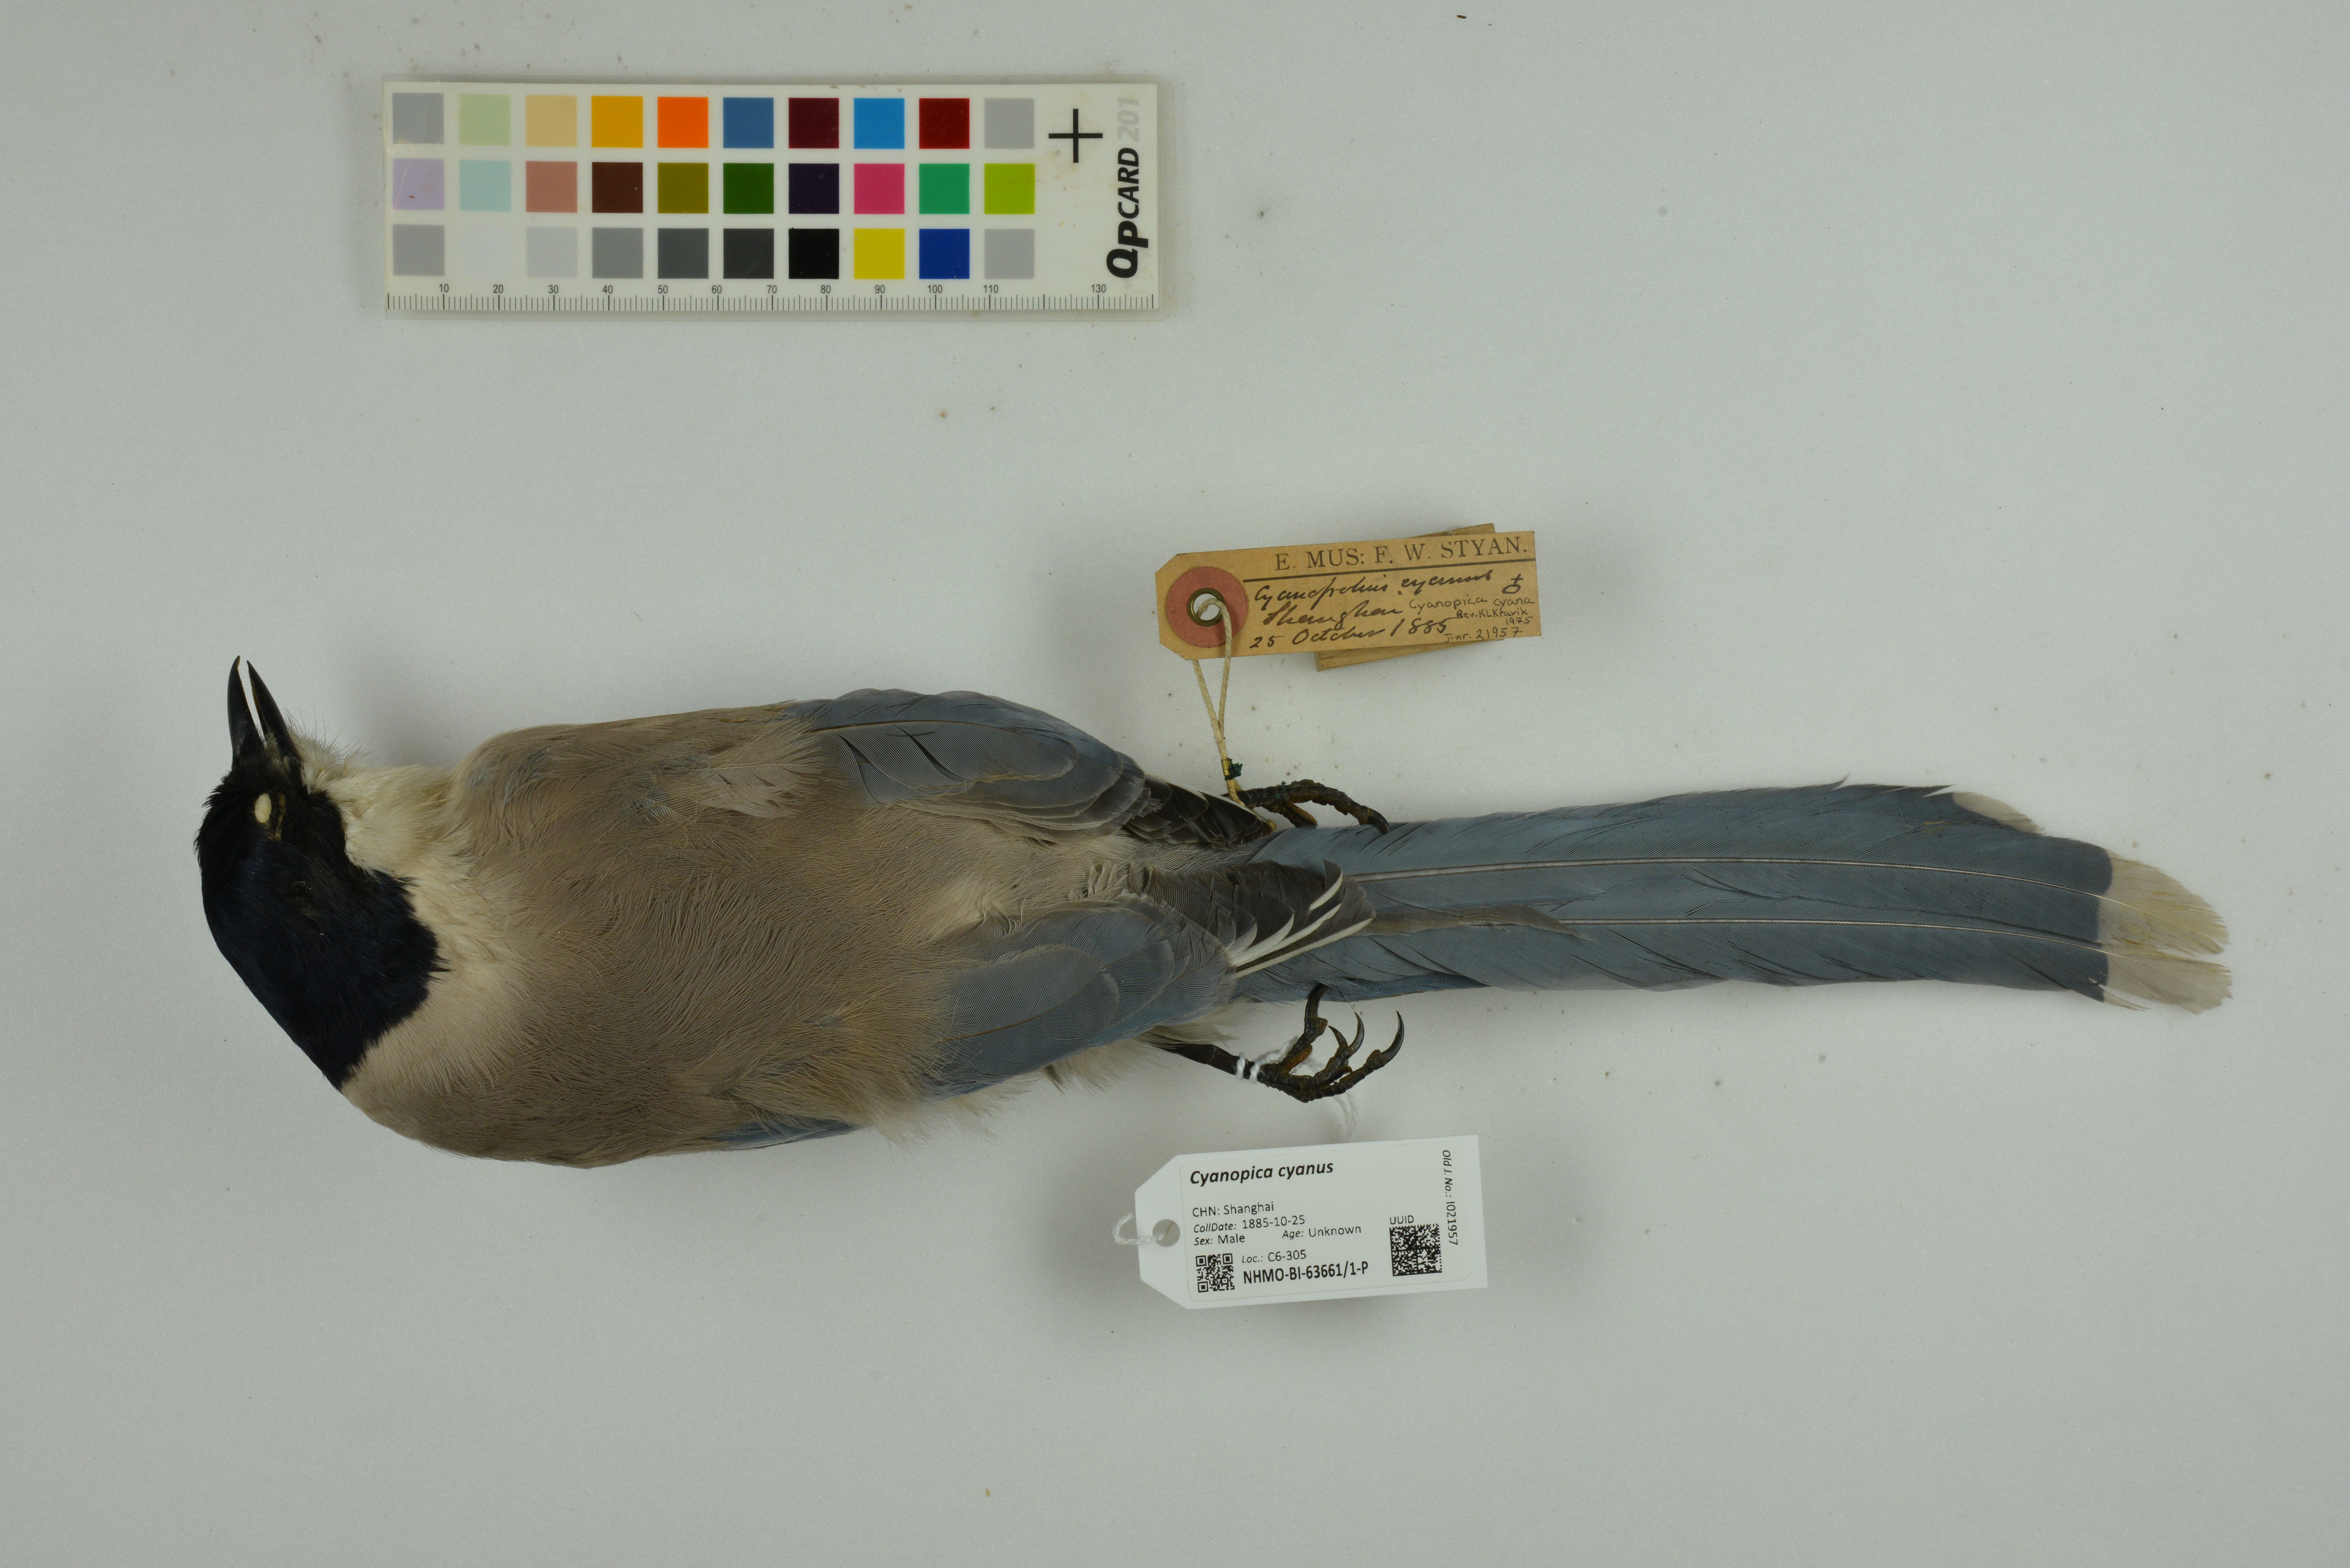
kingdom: Animalia
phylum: Chordata
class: Aves
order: Passeriformes
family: Corvidae
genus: Cyanopica
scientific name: Cyanopica cyanus
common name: Azure-winged magpie
